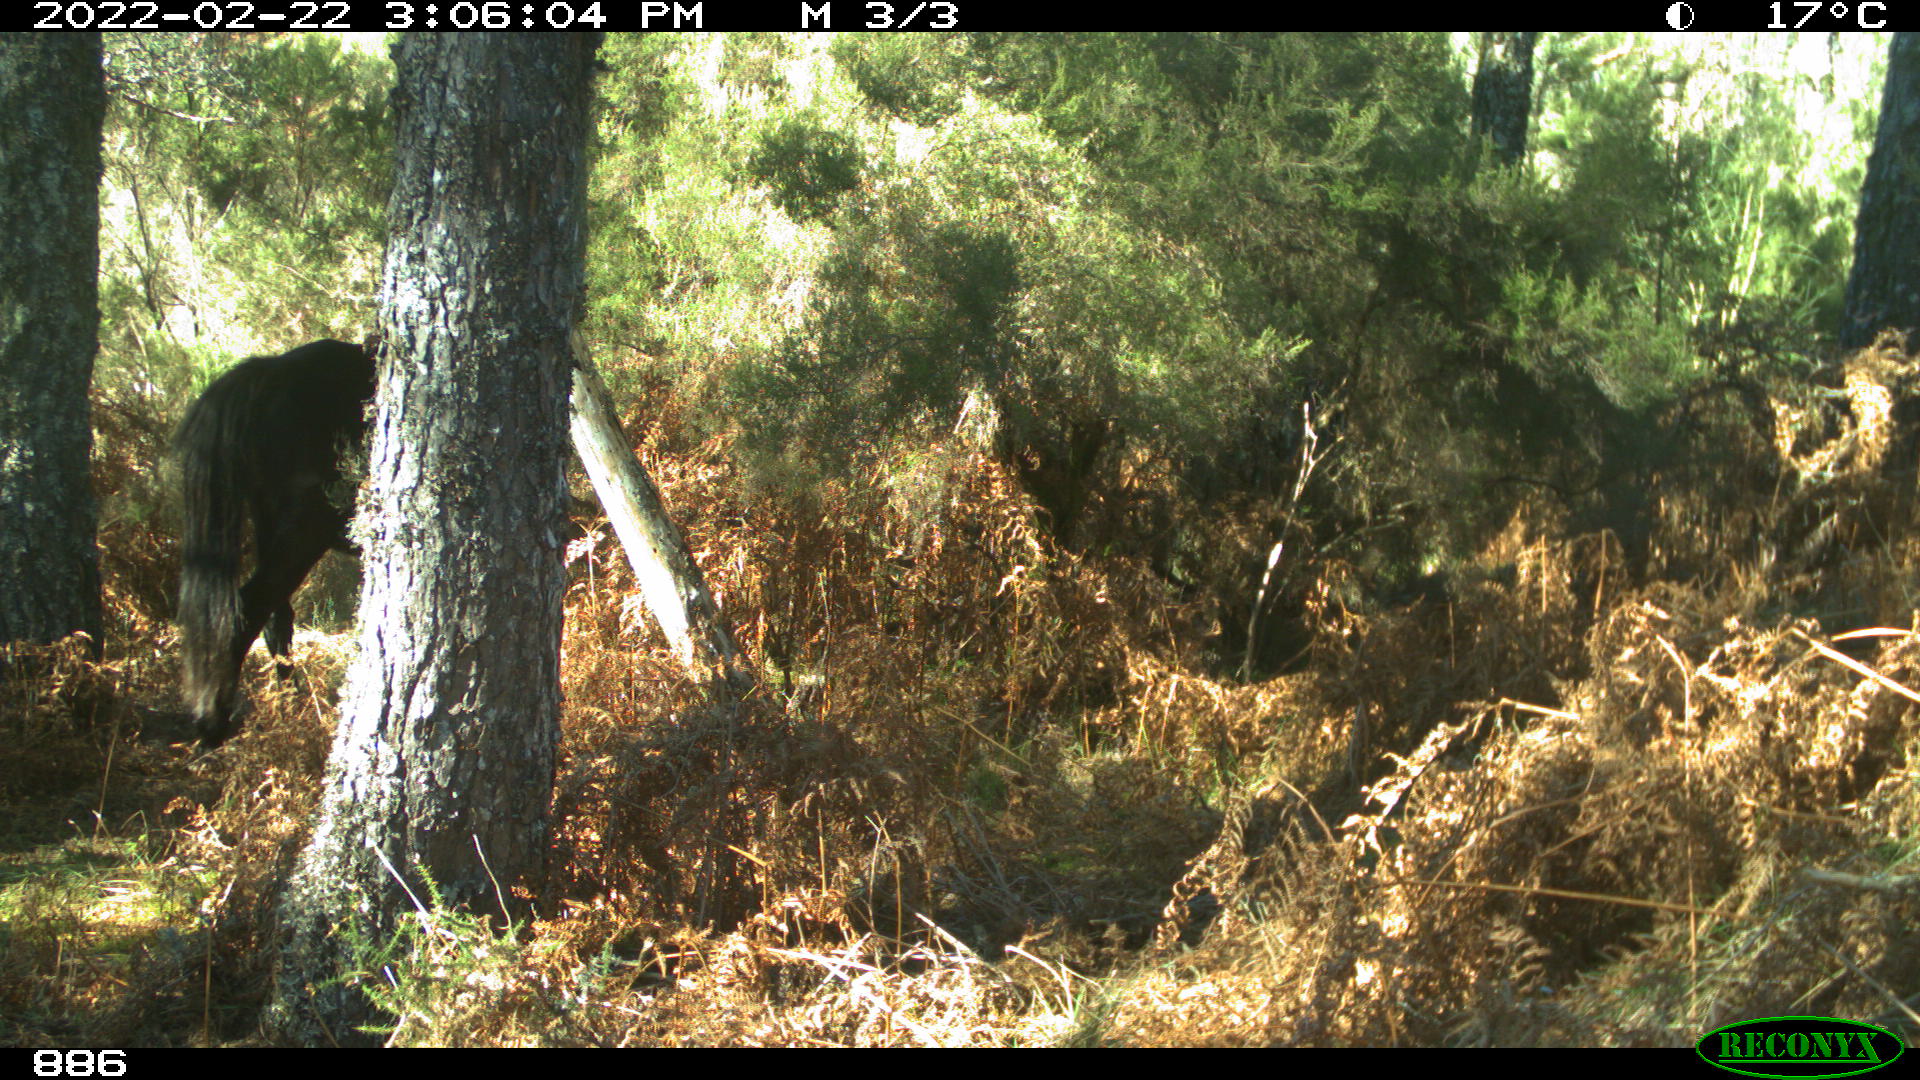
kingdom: Animalia
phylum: Chordata
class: Mammalia
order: Perissodactyla
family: Equidae
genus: Equus
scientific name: Equus caballus
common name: Horse
